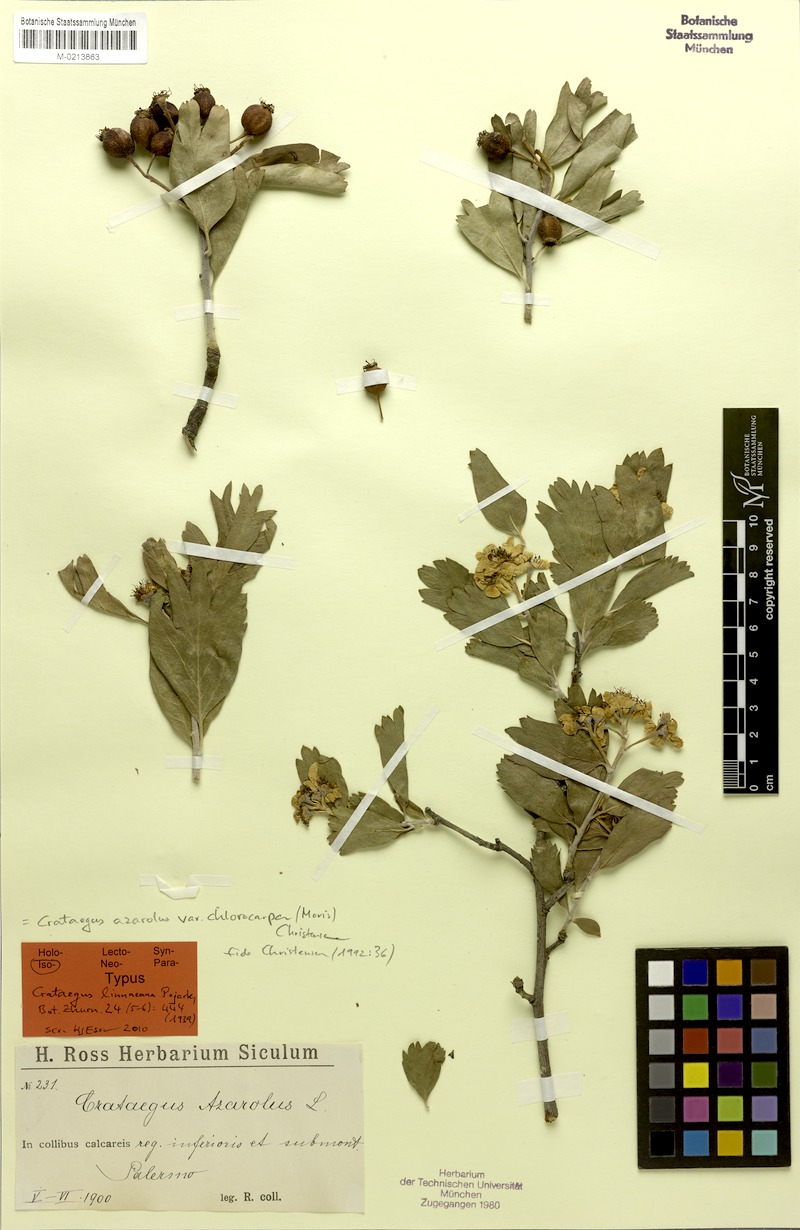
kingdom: Plantae
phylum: Tracheophyta
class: Magnoliopsida
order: Rosales
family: Rosaceae
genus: Crataegus
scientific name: Crataegus azarolus
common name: Azarole
